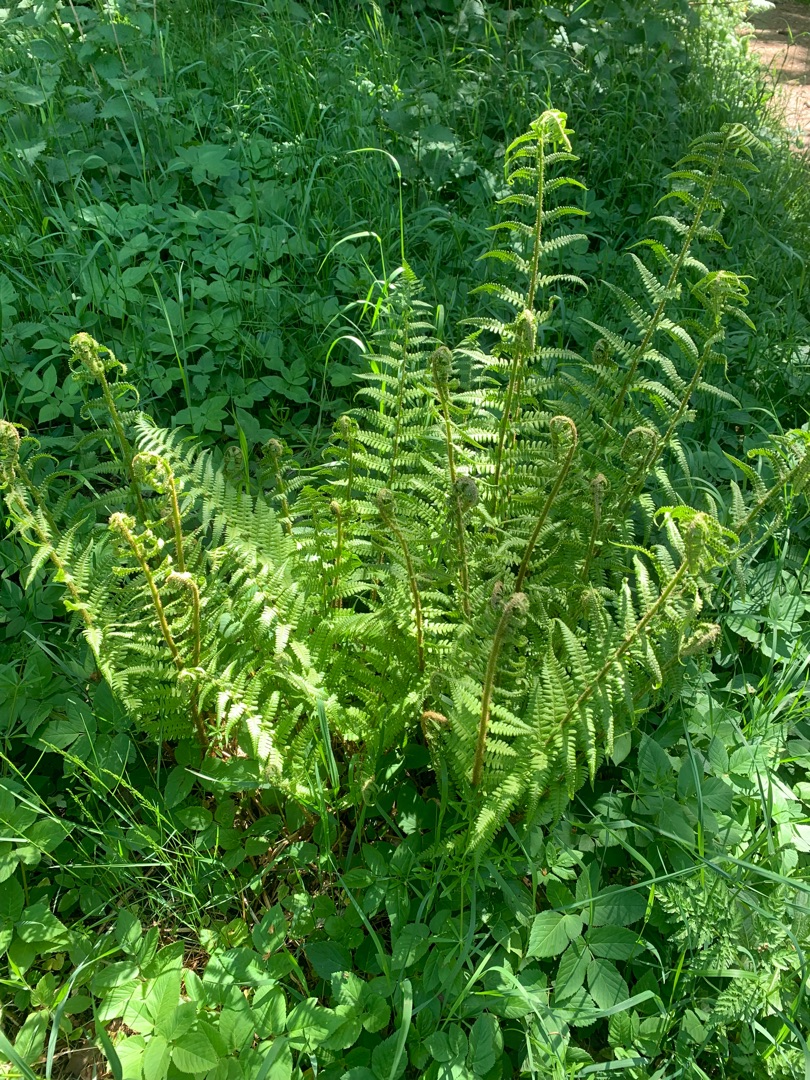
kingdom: Plantae
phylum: Tracheophyta
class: Polypodiopsida
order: Polypodiales
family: Dryopteridaceae
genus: Dryopteris
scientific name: Dryopteris filix-mas
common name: Almindelig mangeløv
